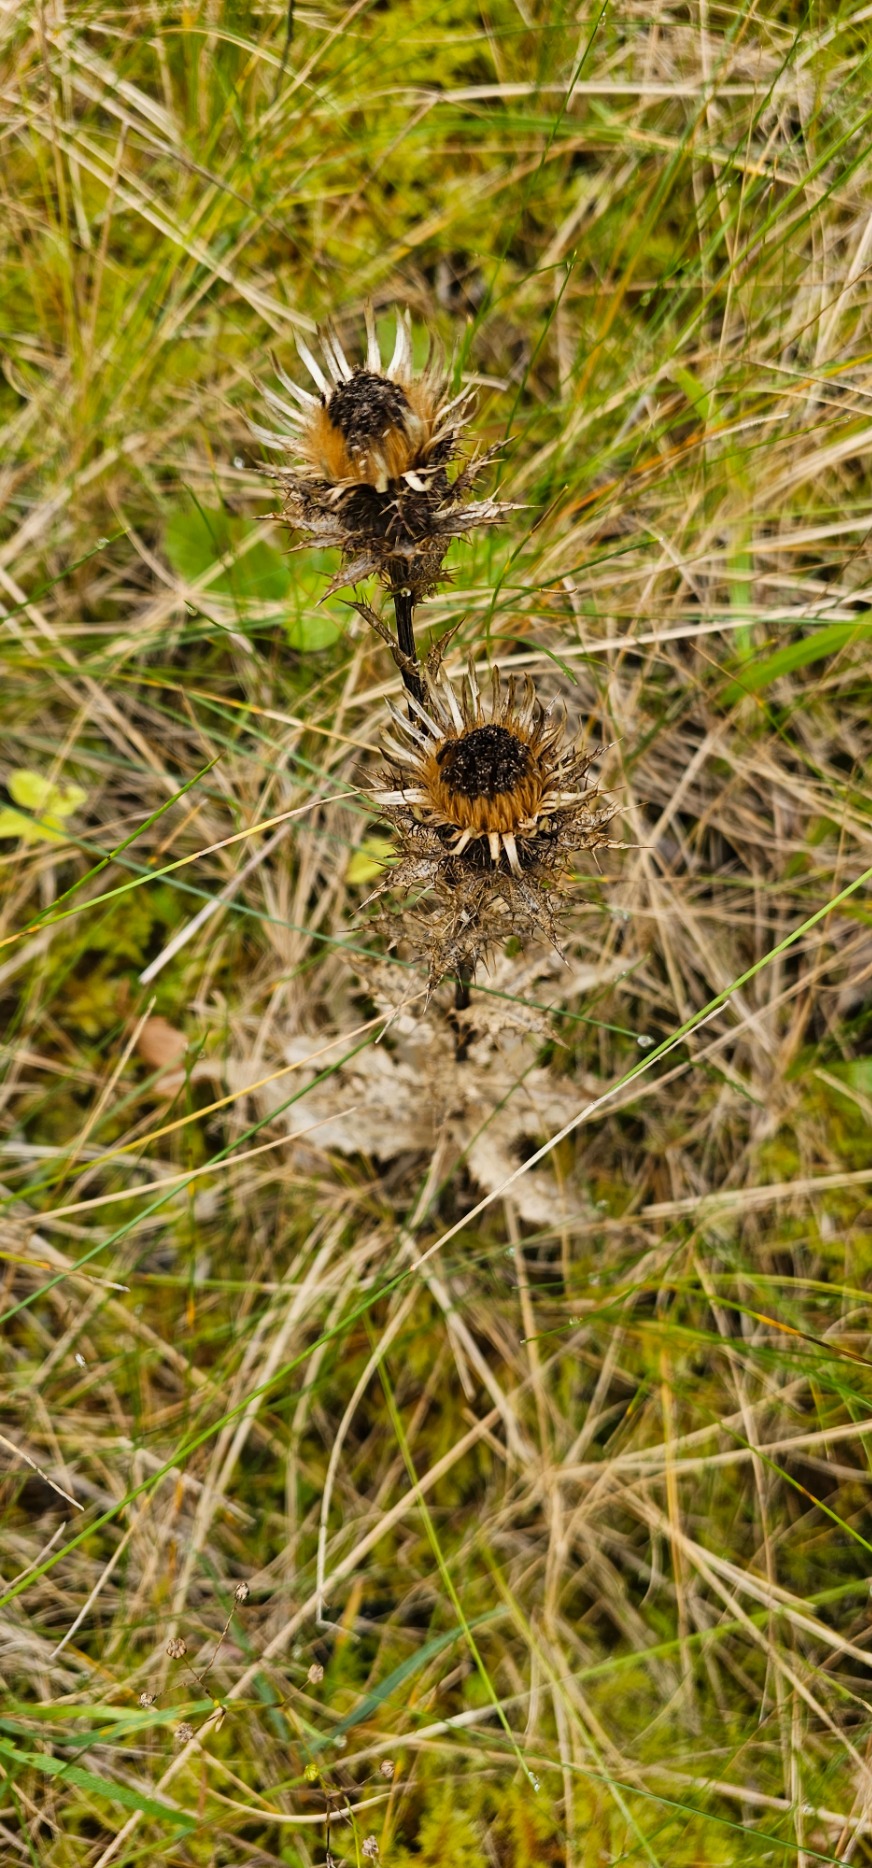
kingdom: Plantae
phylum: Tracheophyta
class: Magnoliopsida
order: Asterales
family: Asteraceae
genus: Carlina
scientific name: Carlina vulgaris
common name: Bakketidsel
